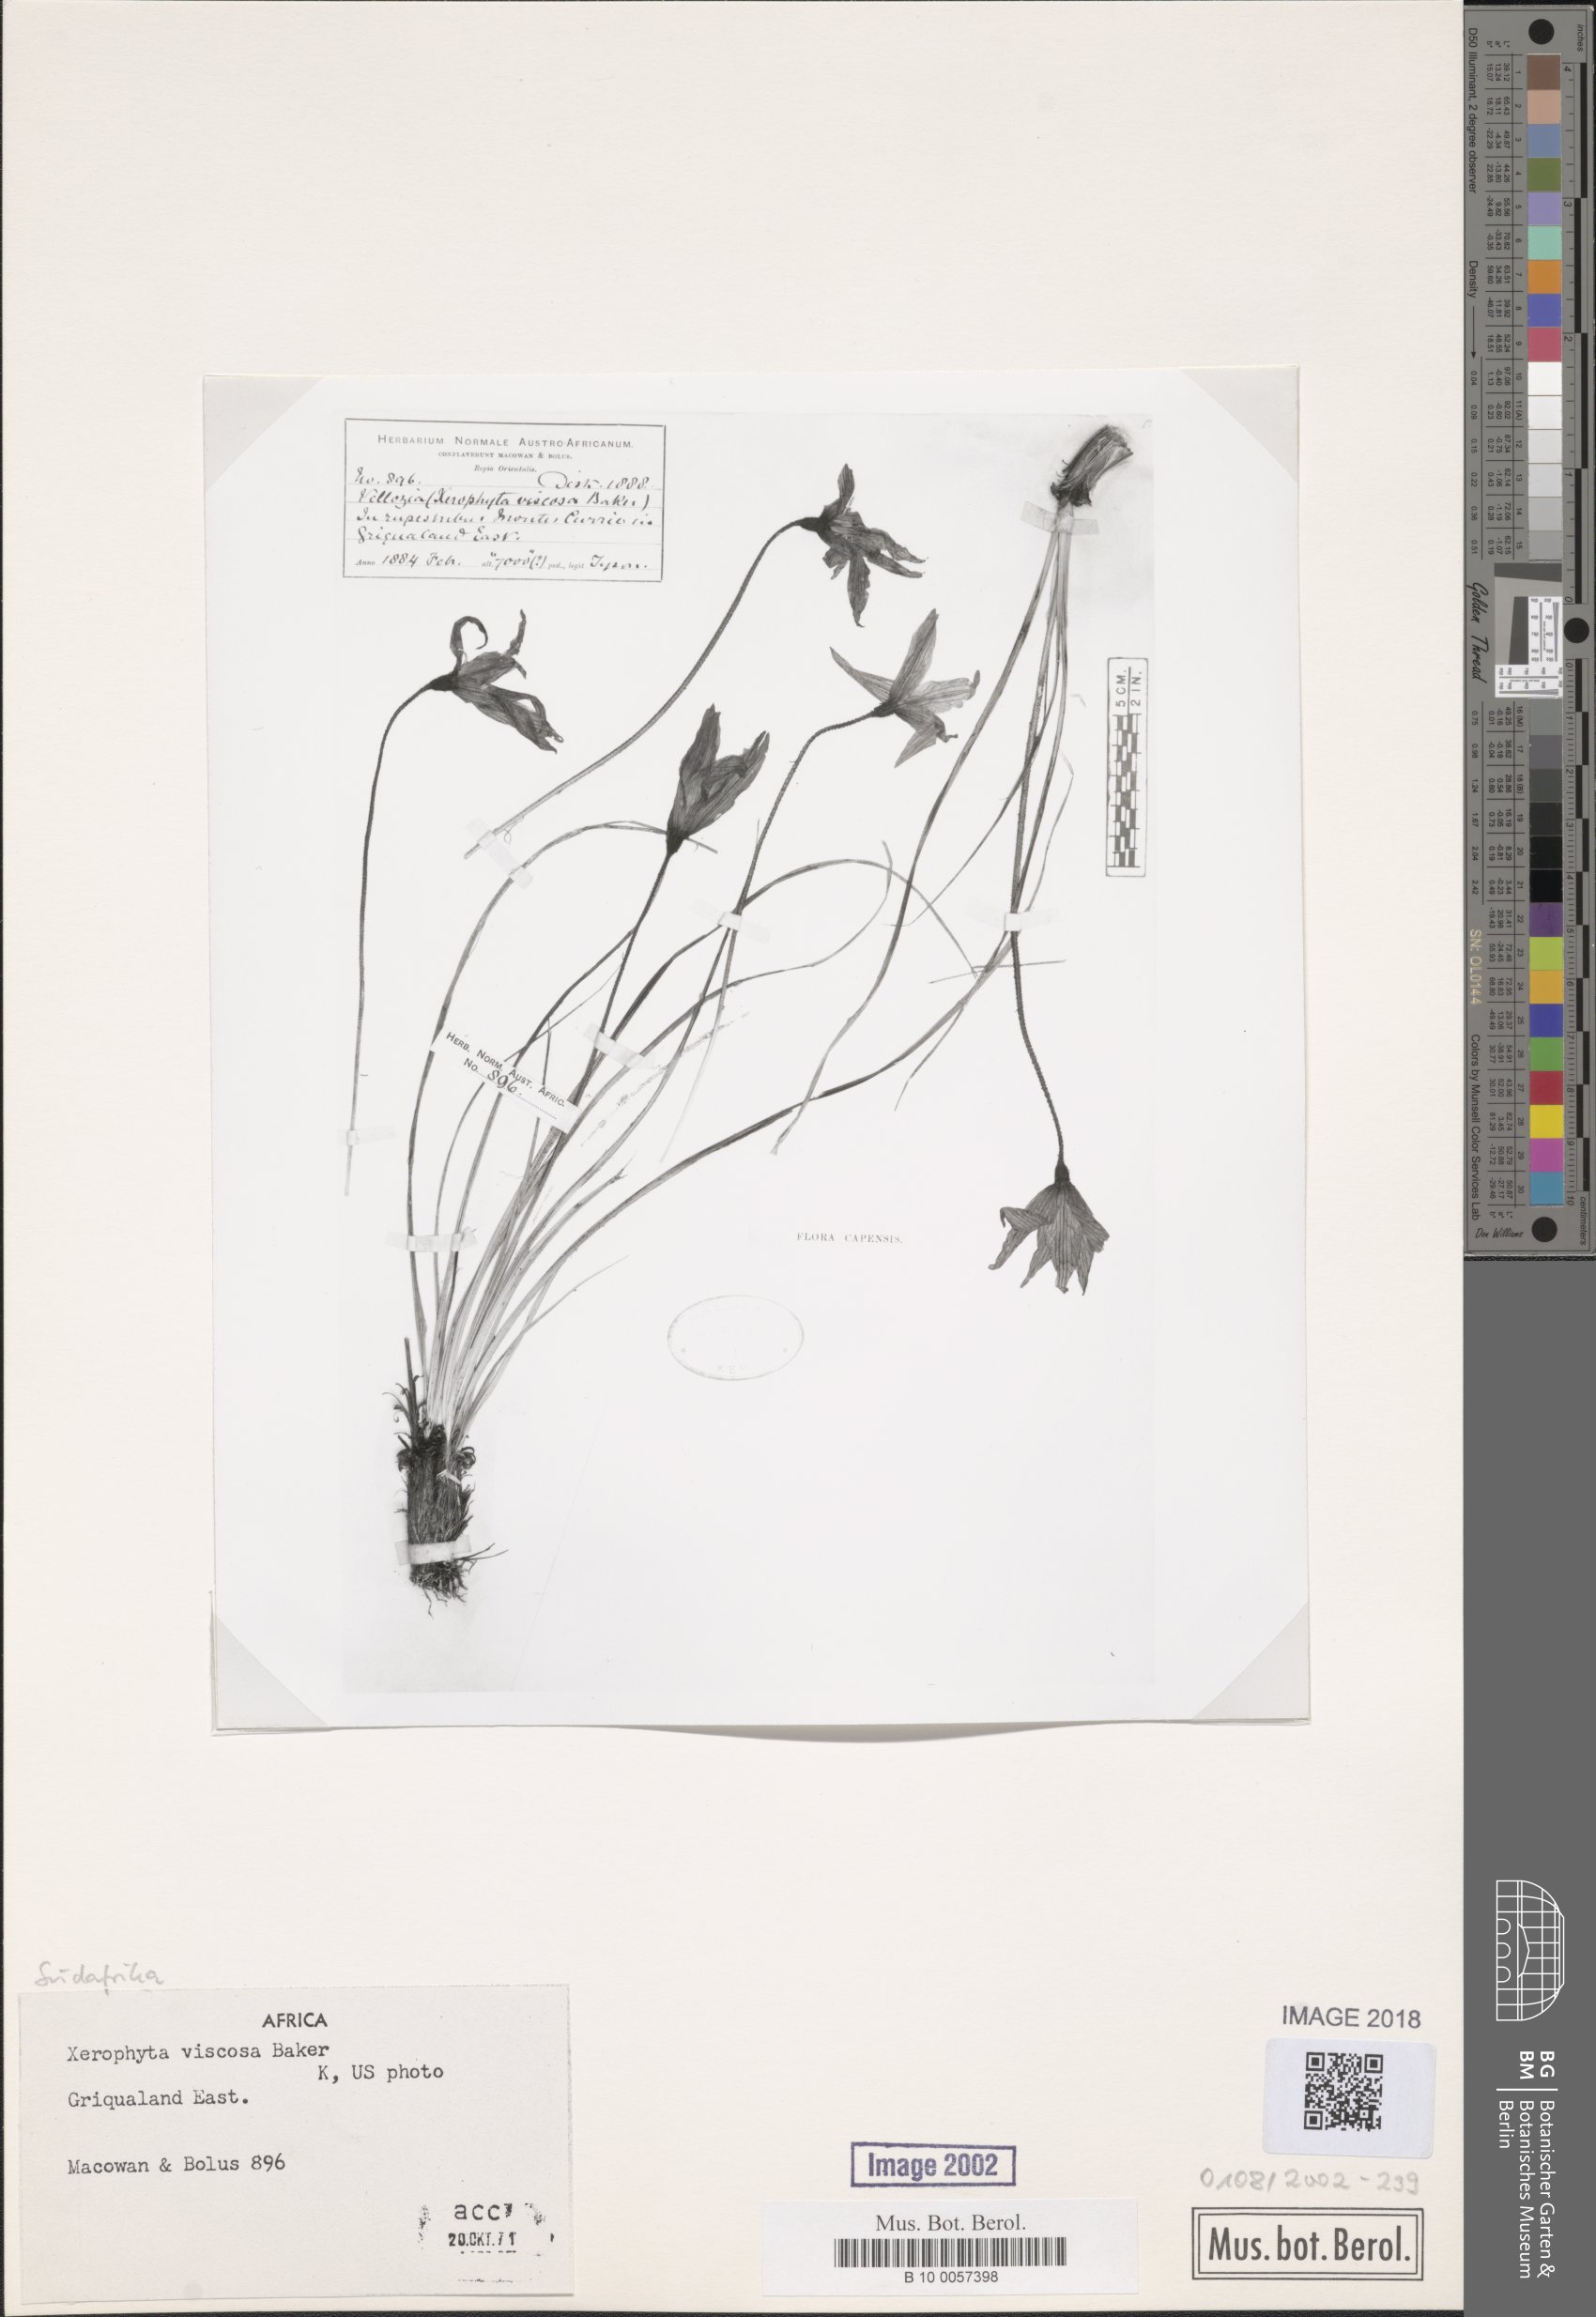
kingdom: Plantae
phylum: Tracheophyta
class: Liliopsida
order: Pandanales
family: Velloziaceae
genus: Xerophyta
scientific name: Xerophyta viscosa
